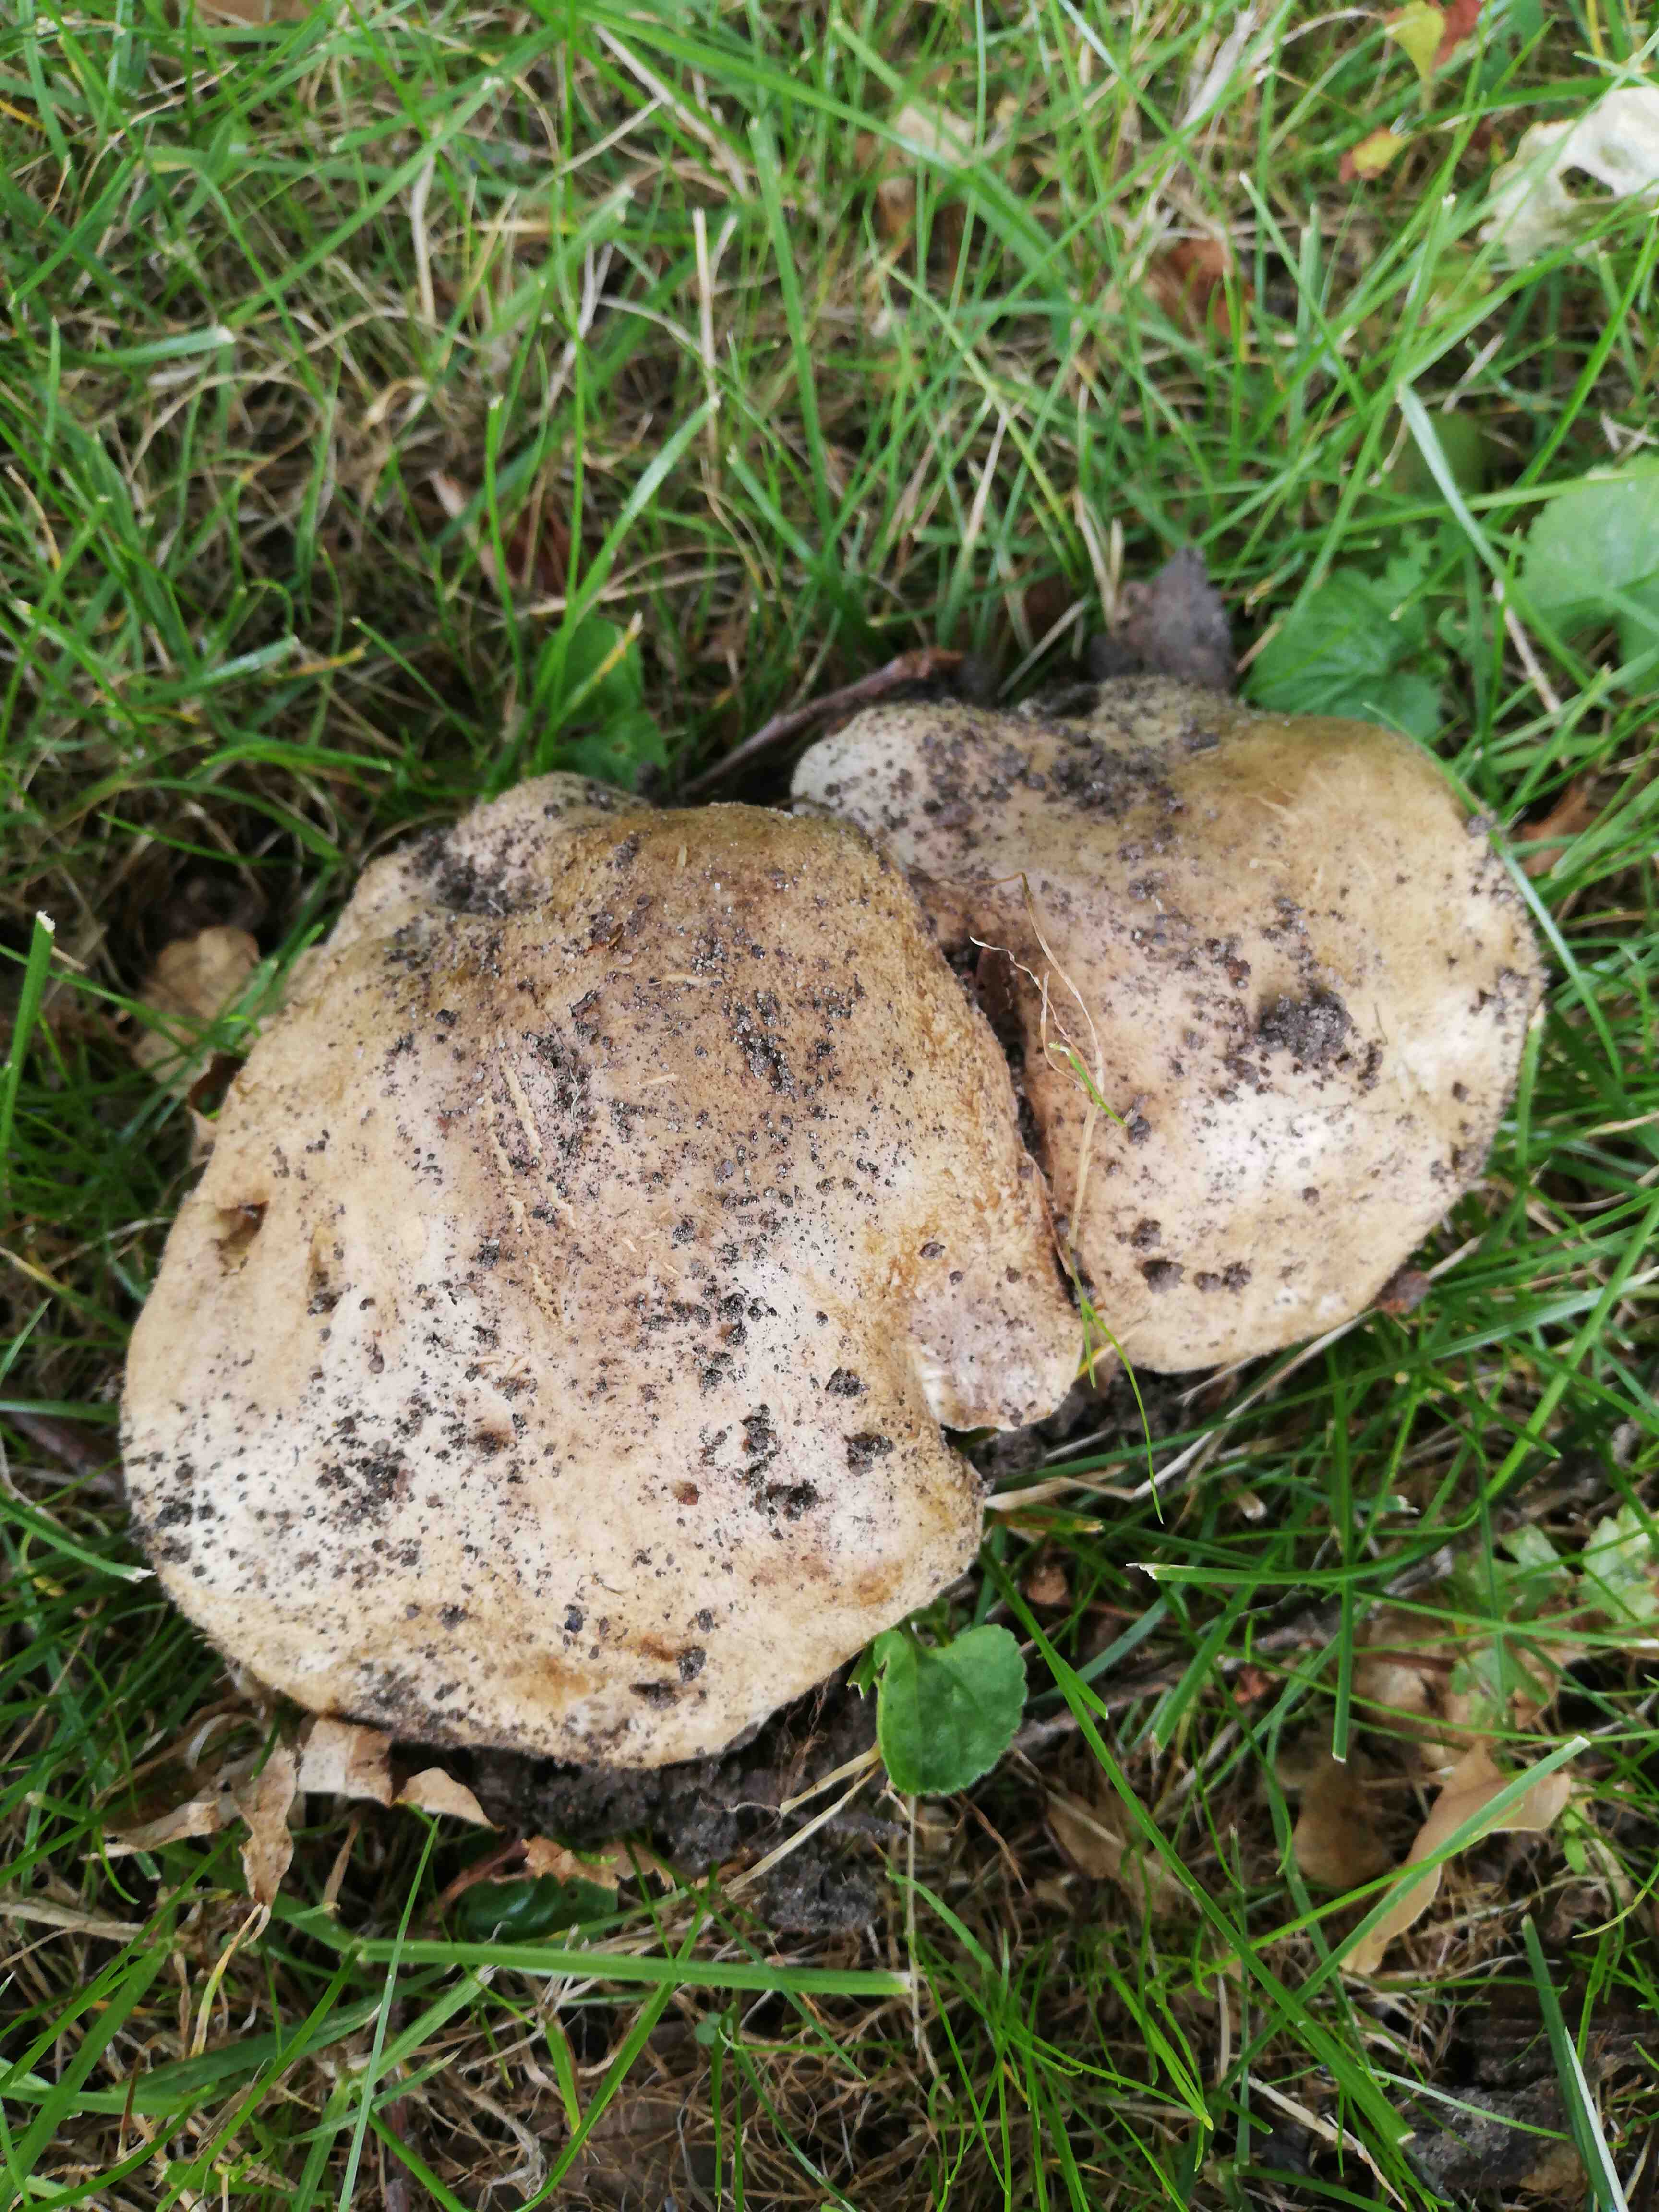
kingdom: Fungi
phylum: Basidiomycota
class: Agaricomycetes
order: Boletales
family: Boletaceae
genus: Caloboletus
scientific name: Caloboletus radicans
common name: rod-rørhat
